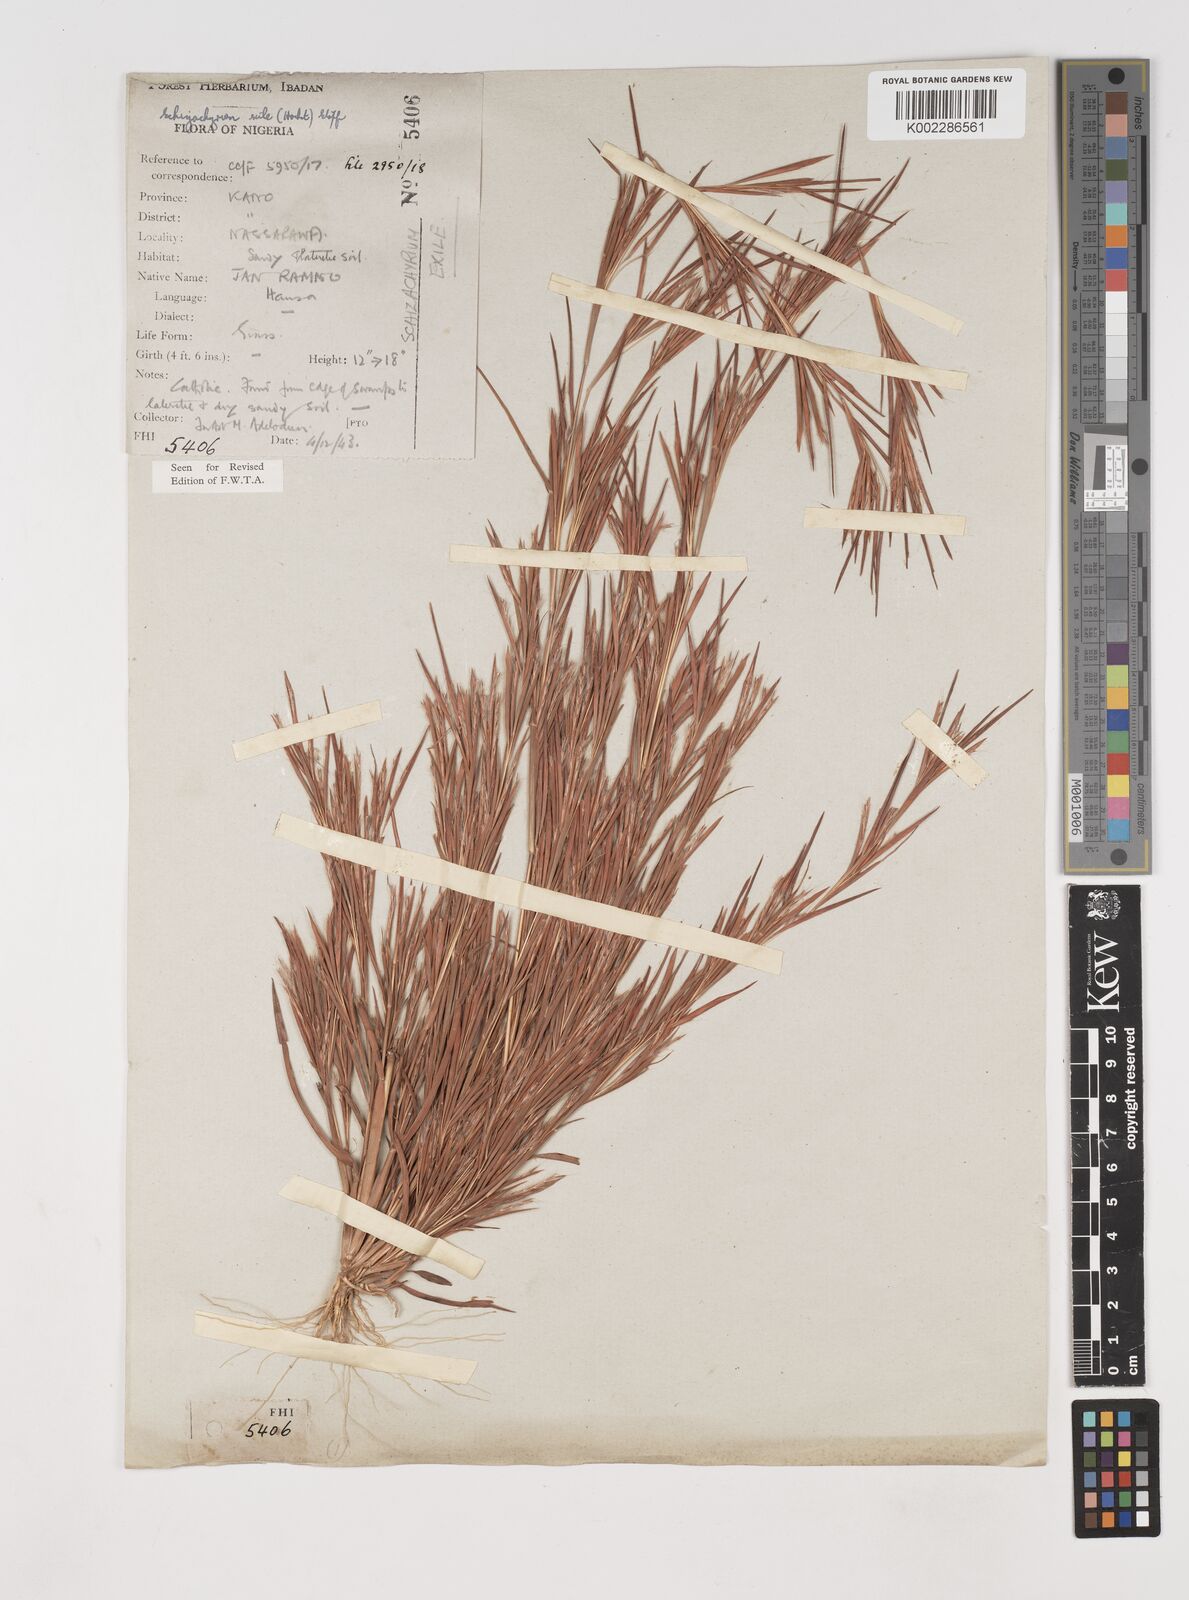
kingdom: Plantae
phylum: Tracheophyta
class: Liliopsida
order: Poales
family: Poaceae
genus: Schizachyrium
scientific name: Schizachyrium exile
